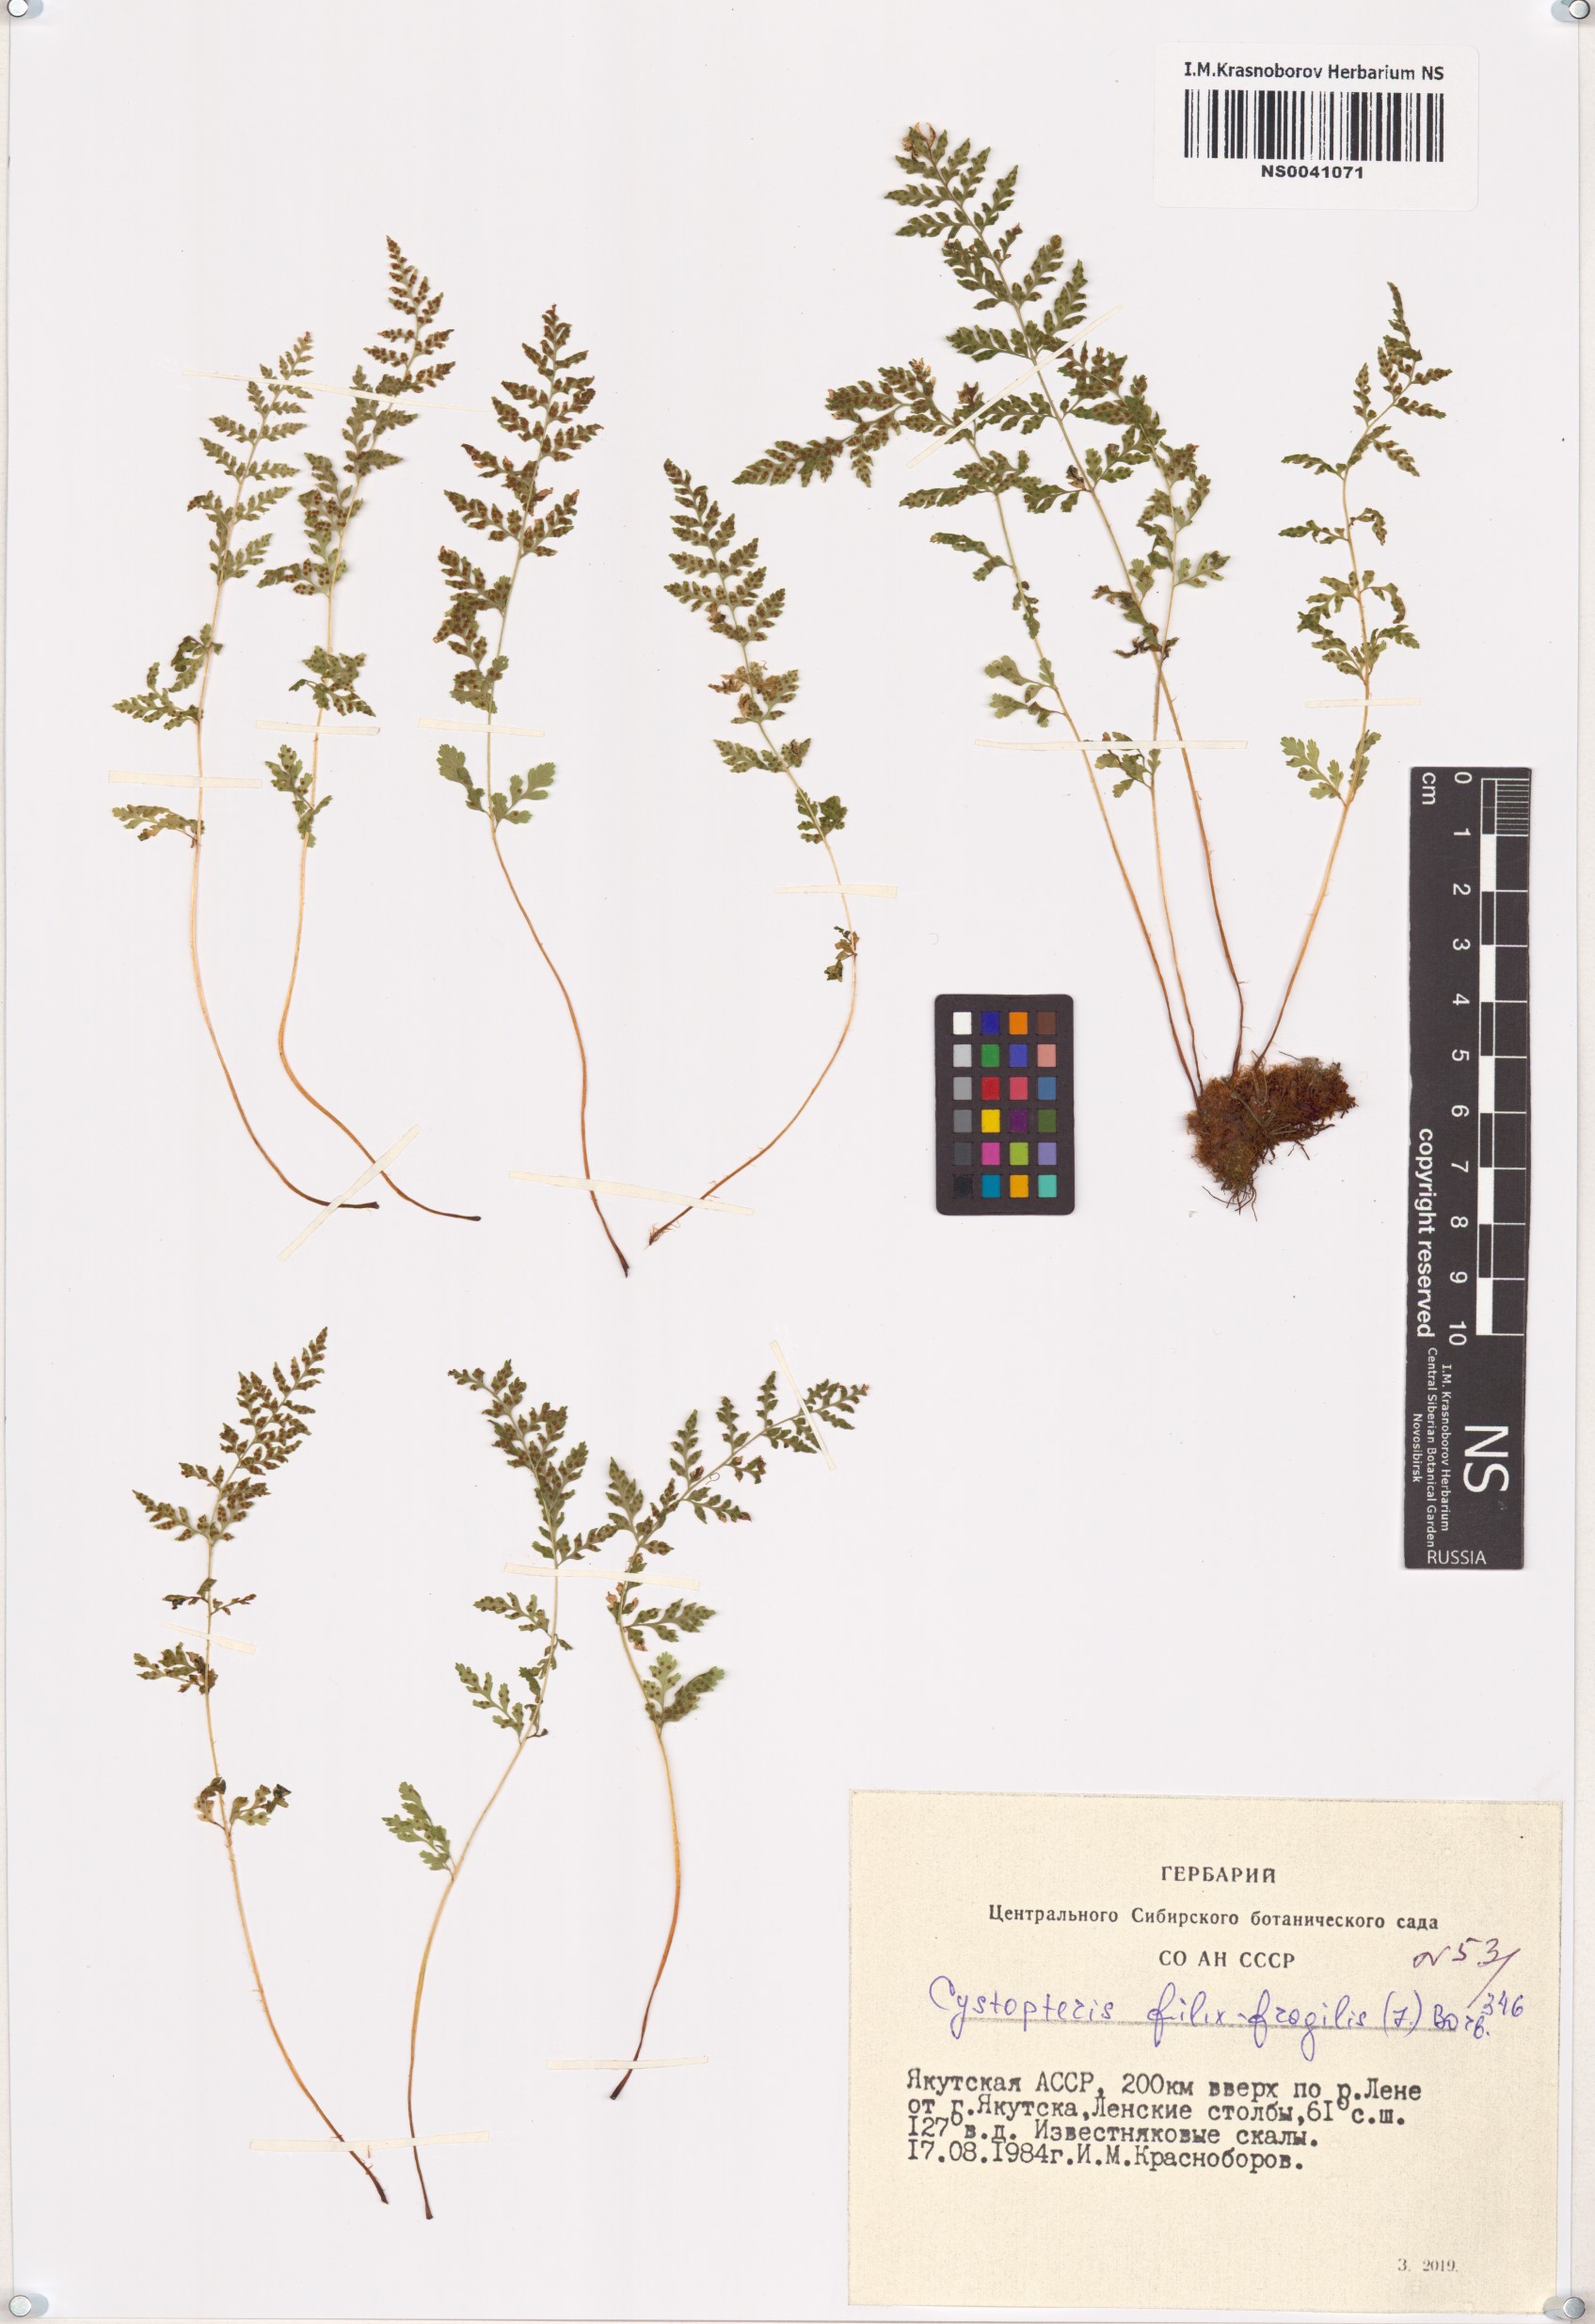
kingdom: Plantae
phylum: Tracheophyta
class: Polypodiopsida
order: Polypodiales
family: Cystopteridaceae
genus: Cystopteris
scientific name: Cystopteris fragilis
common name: Brittle bladder fern
